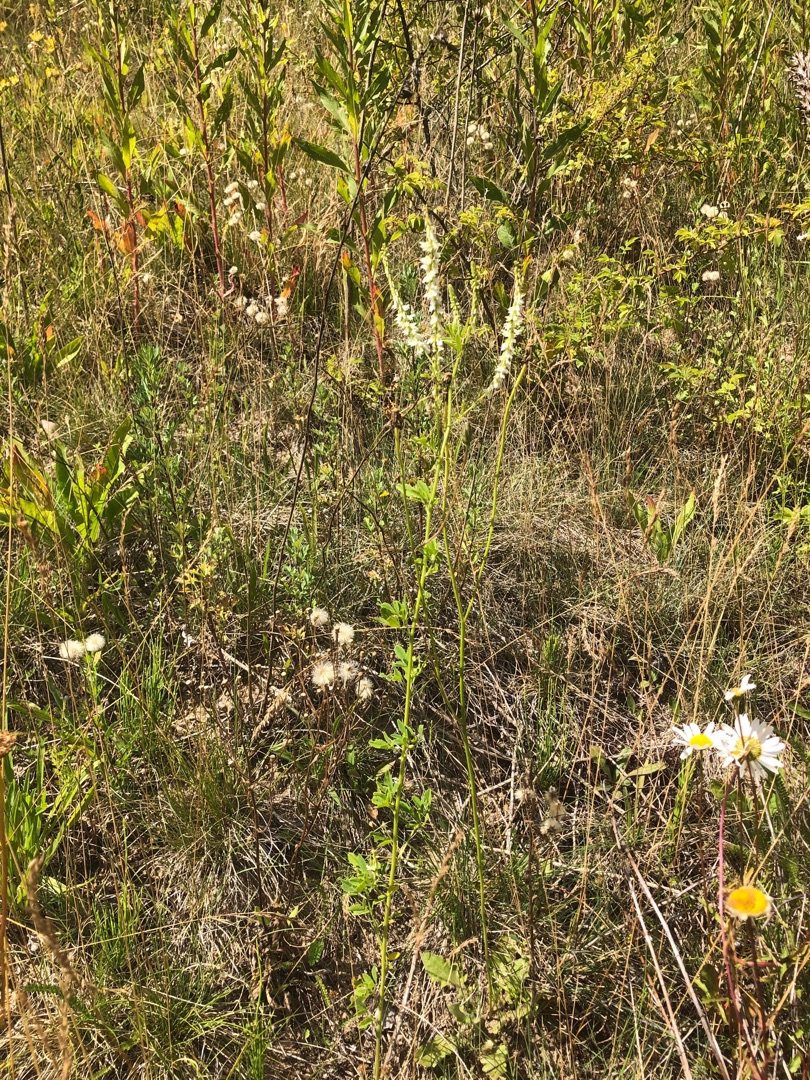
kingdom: Plantae
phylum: Tracheophyta
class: Magnoliopsida
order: Fabales
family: Fabaceae
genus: Melilotus
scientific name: Melilotus albus
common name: Hvid stenkløver
